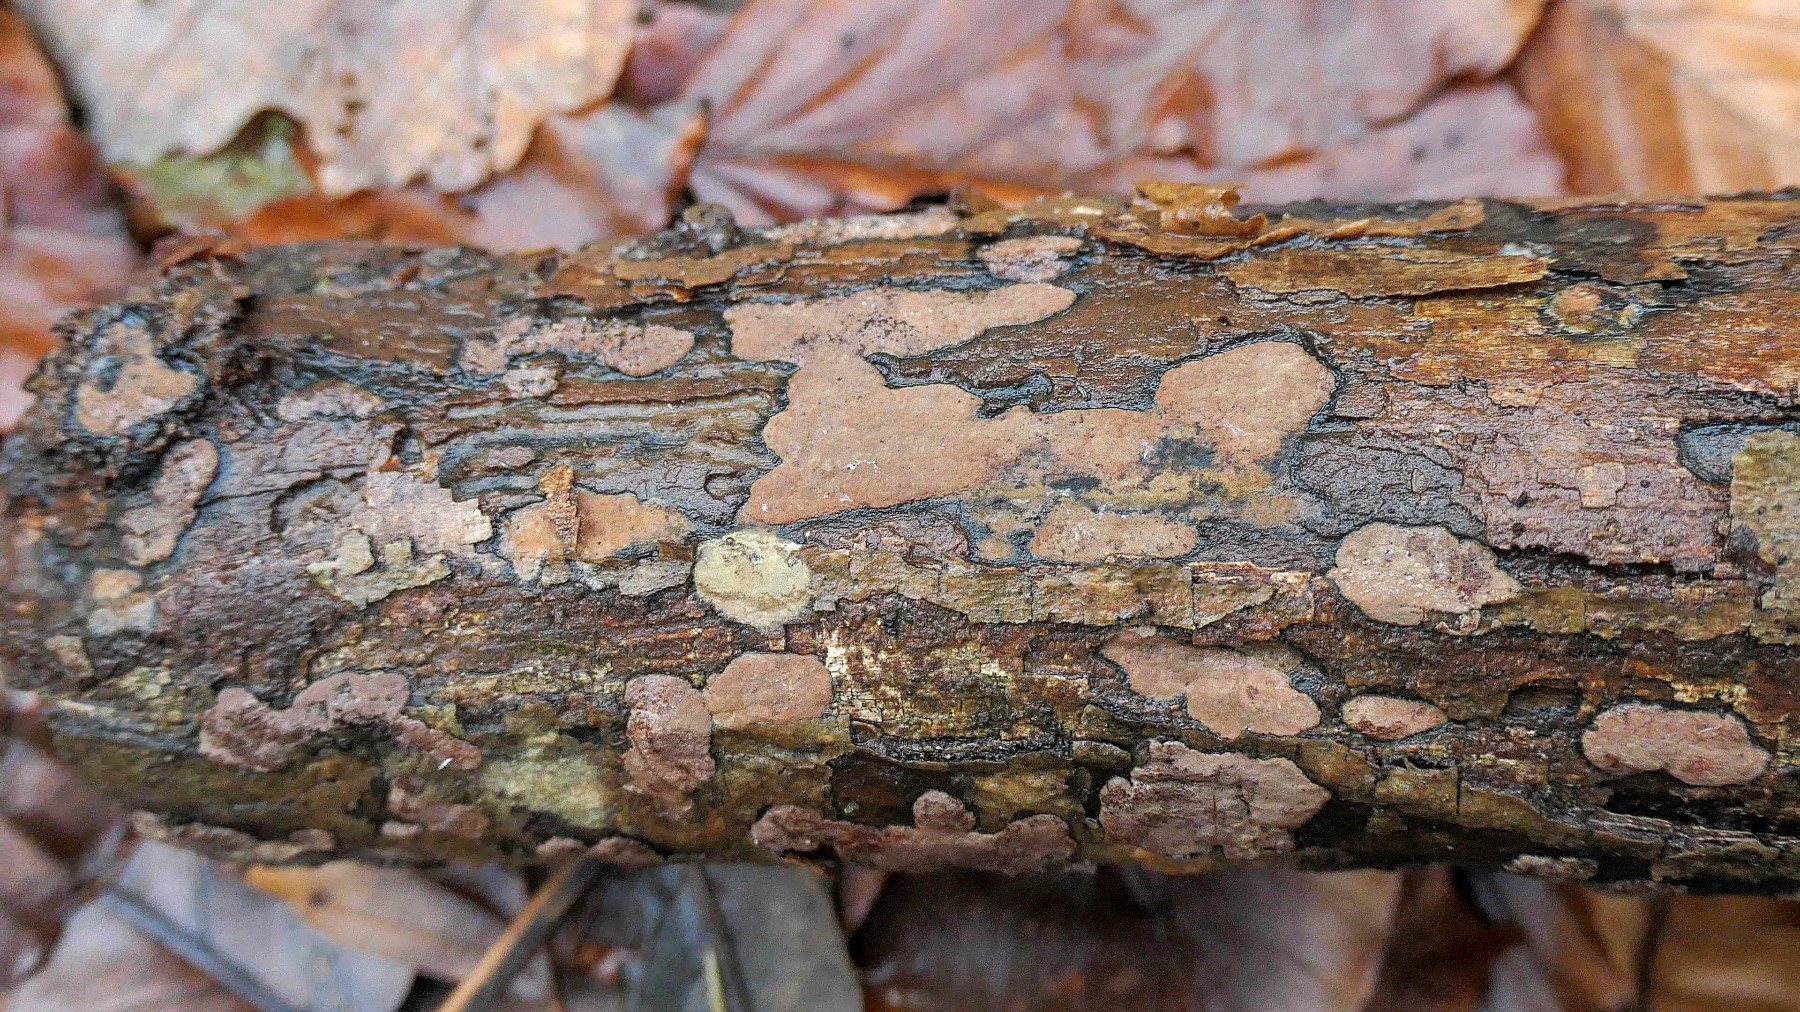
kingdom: Fungi
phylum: Ascomycota
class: Sordariomycetes
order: Xylariales
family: Hypoxylaceae
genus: Hypoxylon
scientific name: Hypoxylon petriniae
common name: nedsænket kulbær
